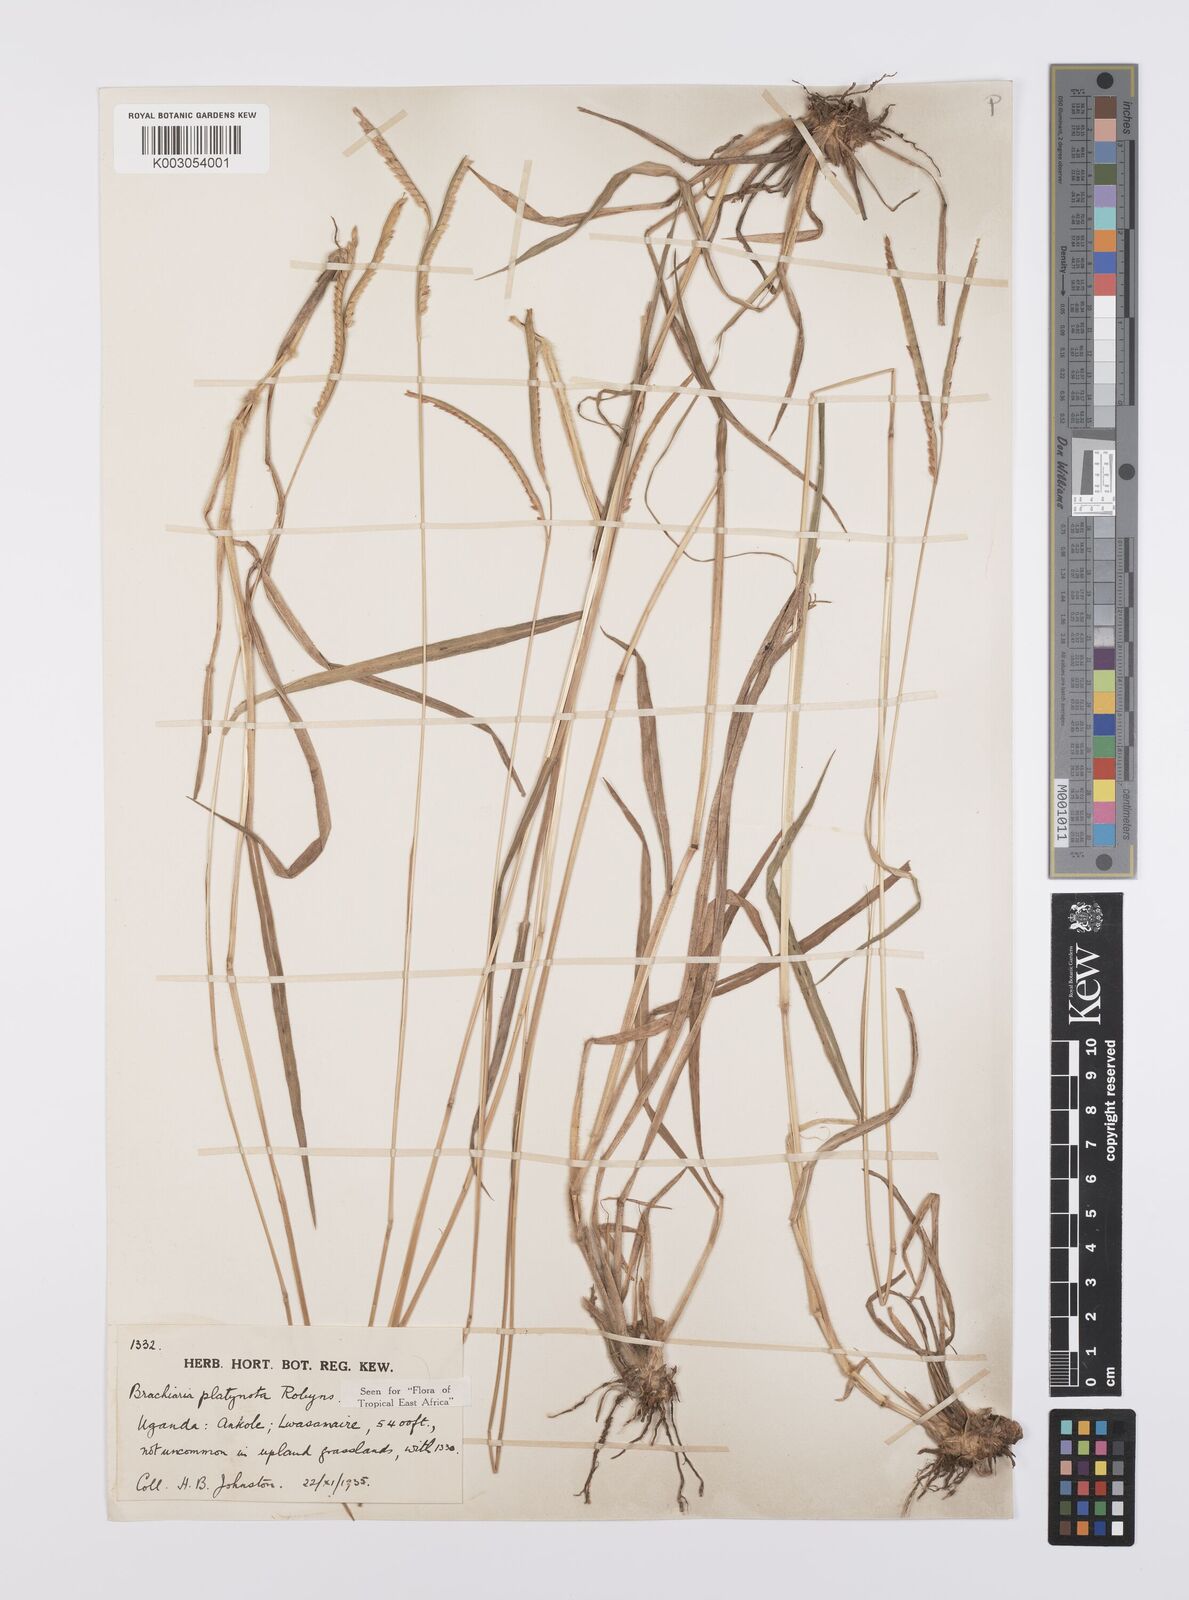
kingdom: Plantae
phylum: Tracheophyta
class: Liliopsida
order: Poales
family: Poaceae
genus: Urochloa
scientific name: Urochloa platynota
